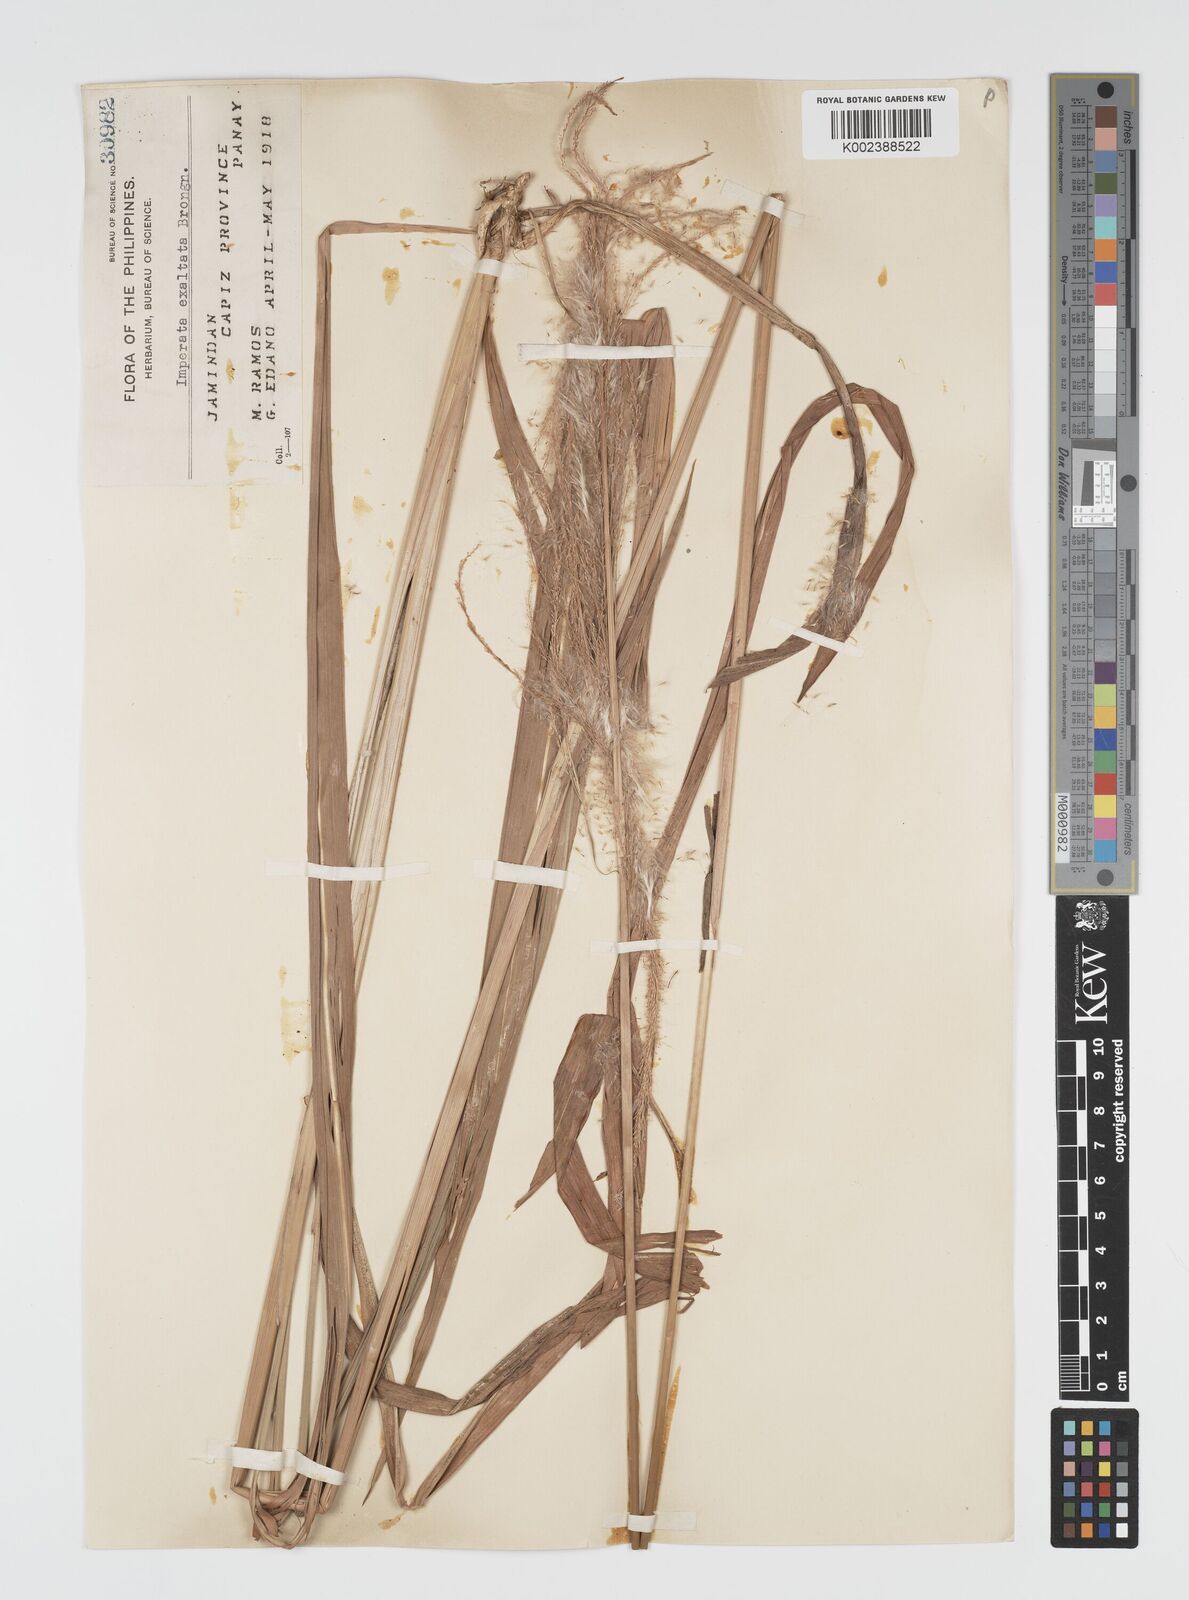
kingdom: Plantae
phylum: Tracheophyta
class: Liliopsida
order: Poales
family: Poaceae
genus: Imperata
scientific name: Imperata conferta
